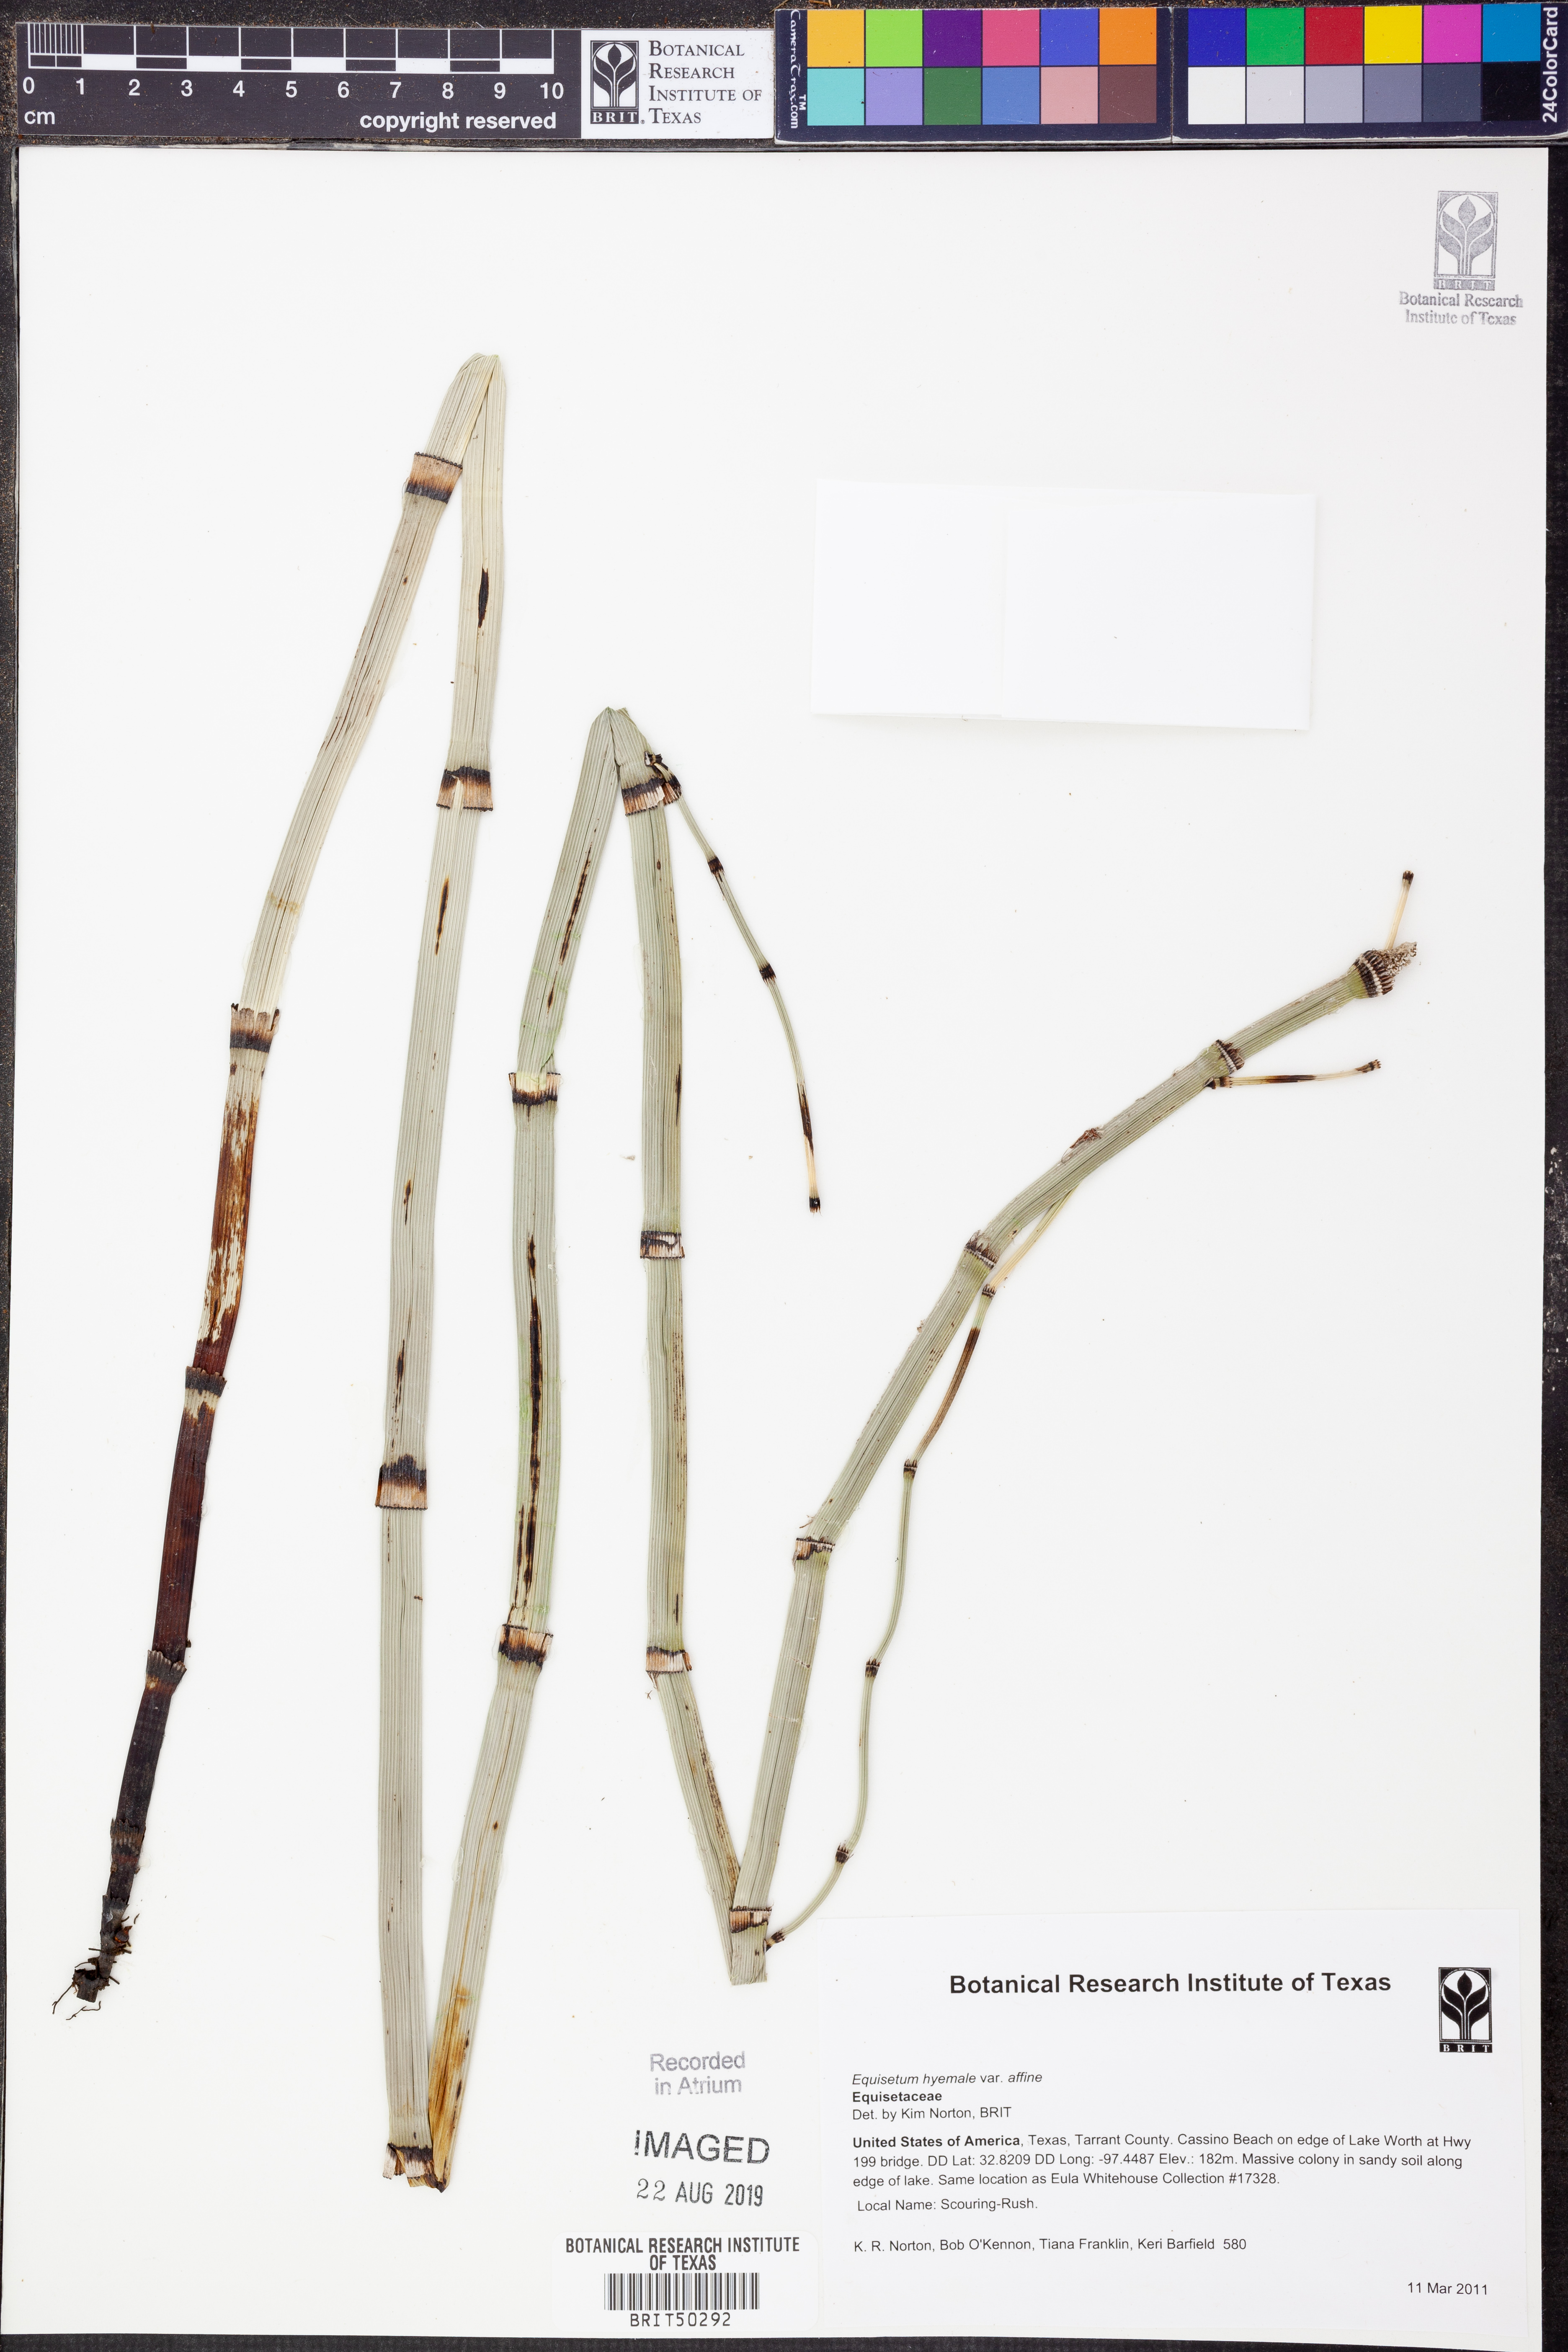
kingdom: Plantae
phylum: Tracheophyta
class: Polypodiopsida
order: Equisetales
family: Equisetaceae
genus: Equisetum
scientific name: Equisetum praealtum
